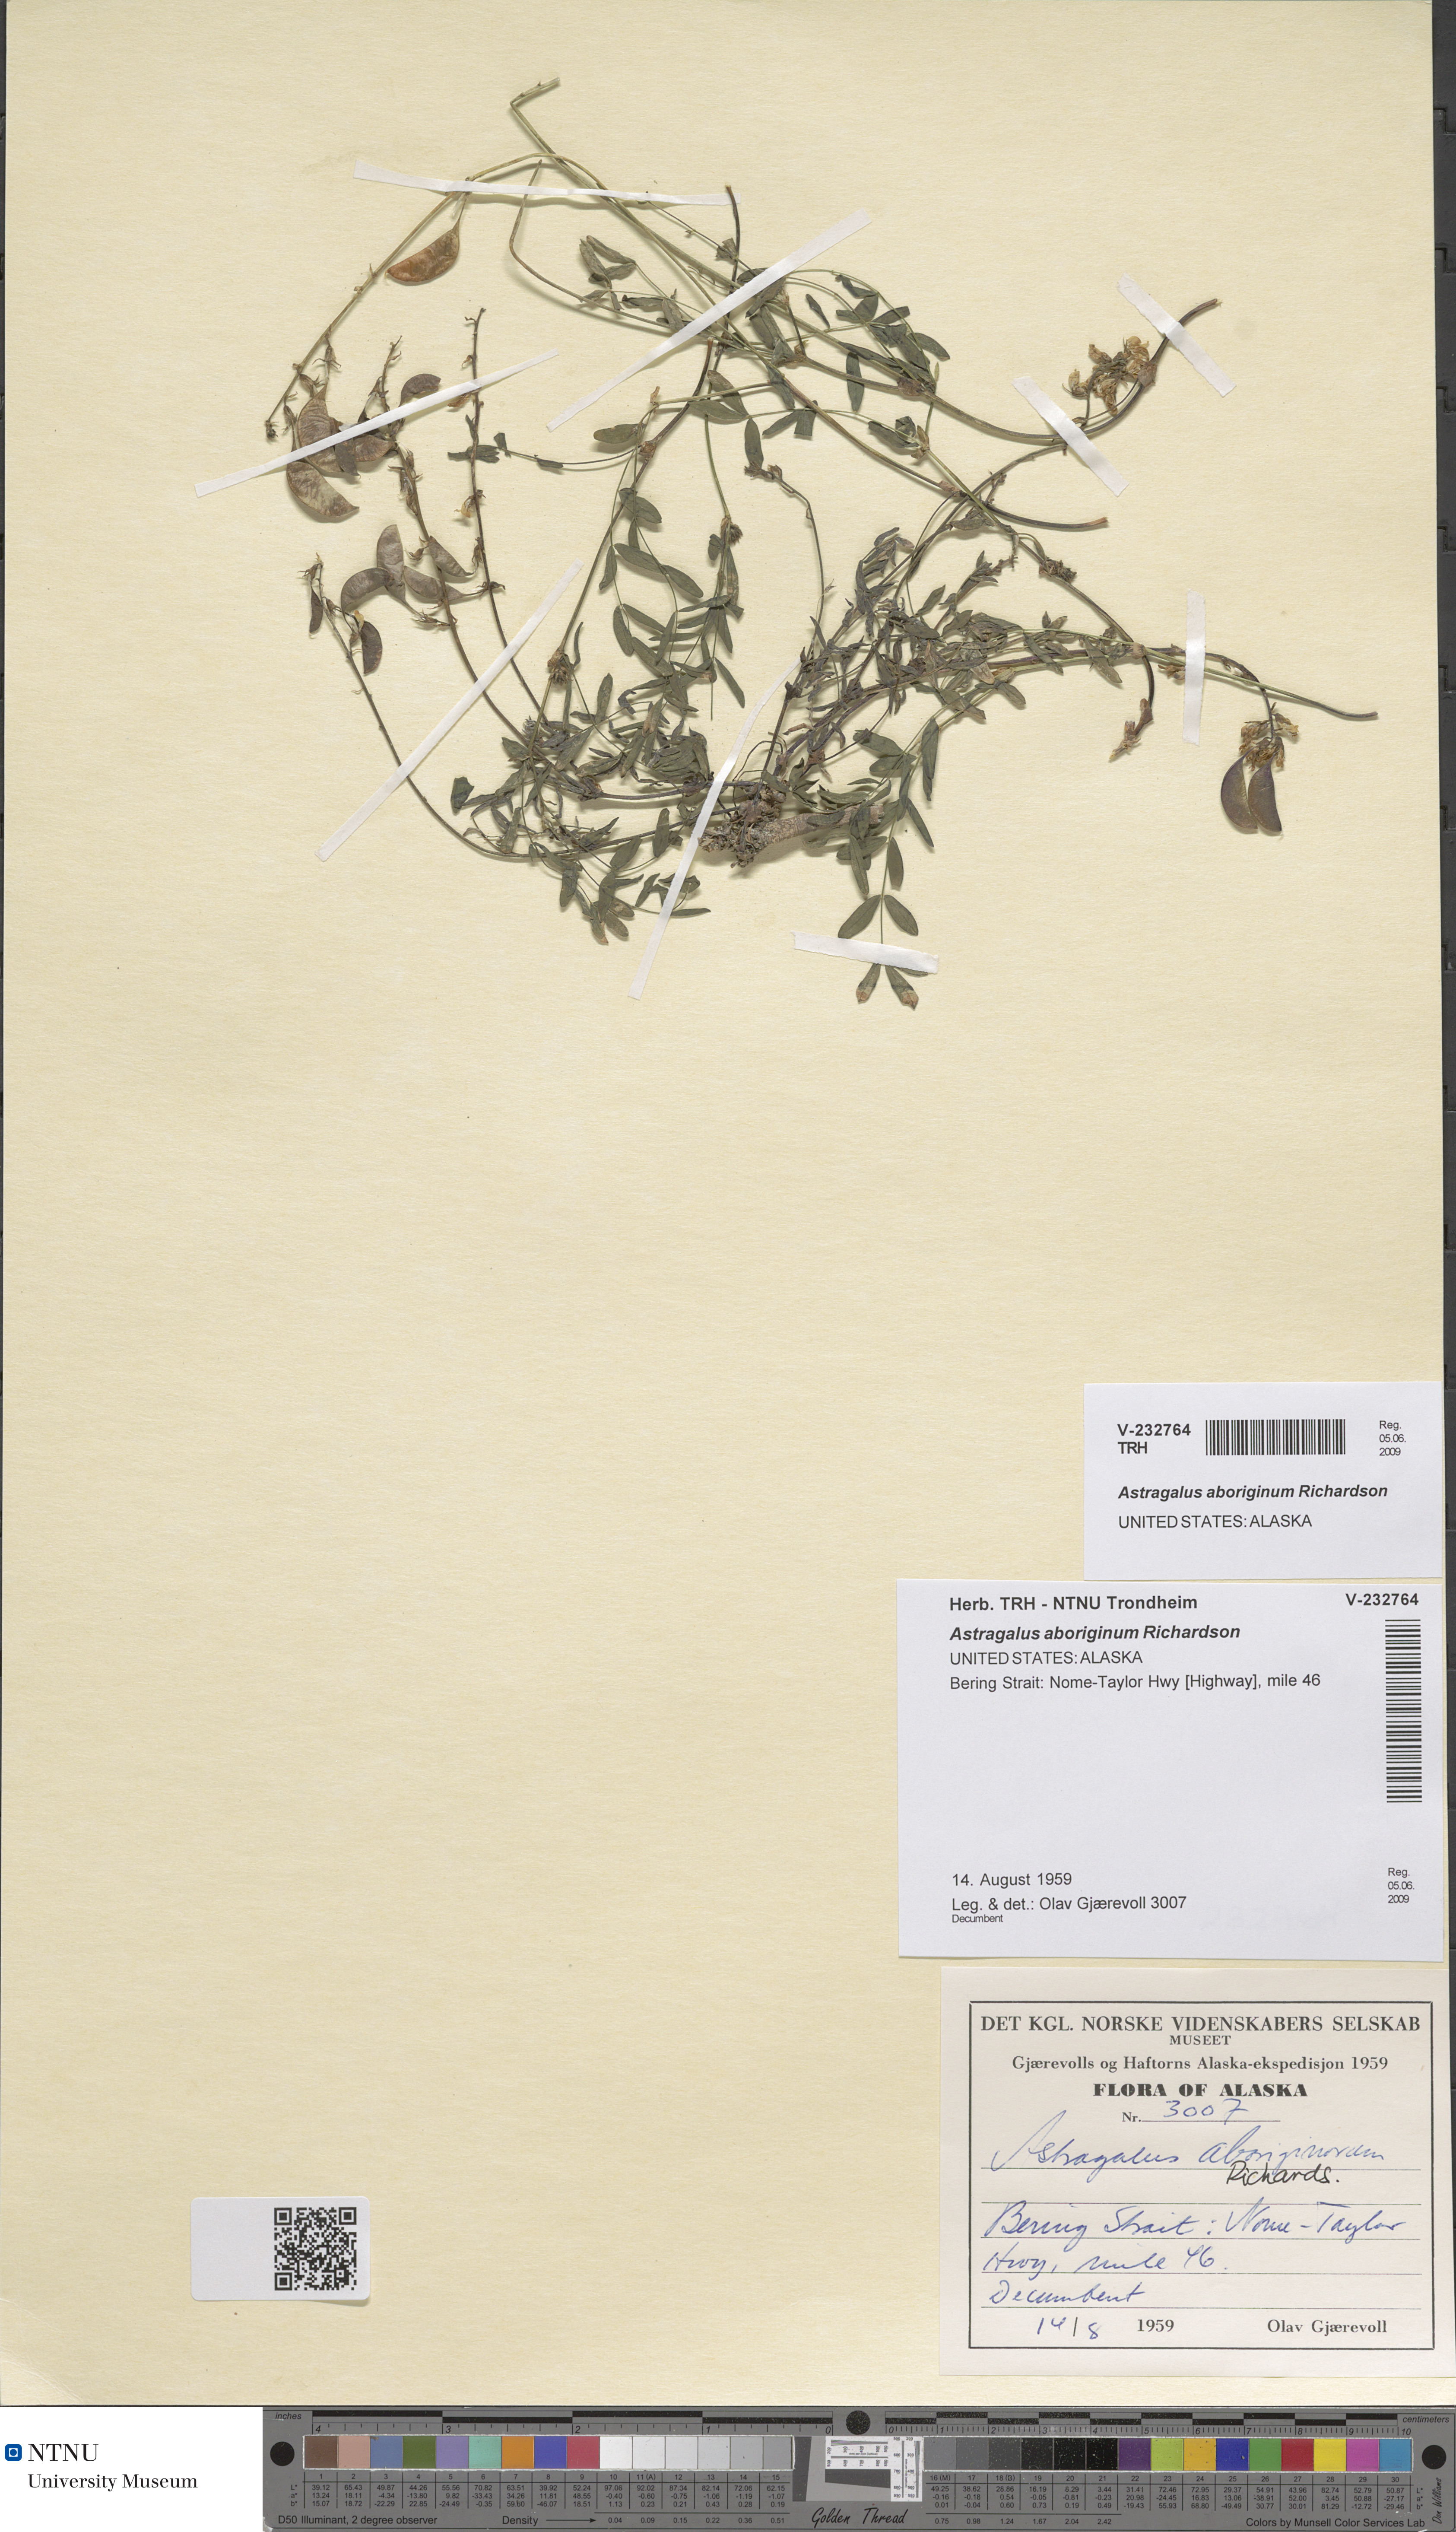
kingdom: Plantae
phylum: Tracheophyta
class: Magnoliopsida
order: Fabales
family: Fabaceae
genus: Astragalus
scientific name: Astragalus aboriginum
